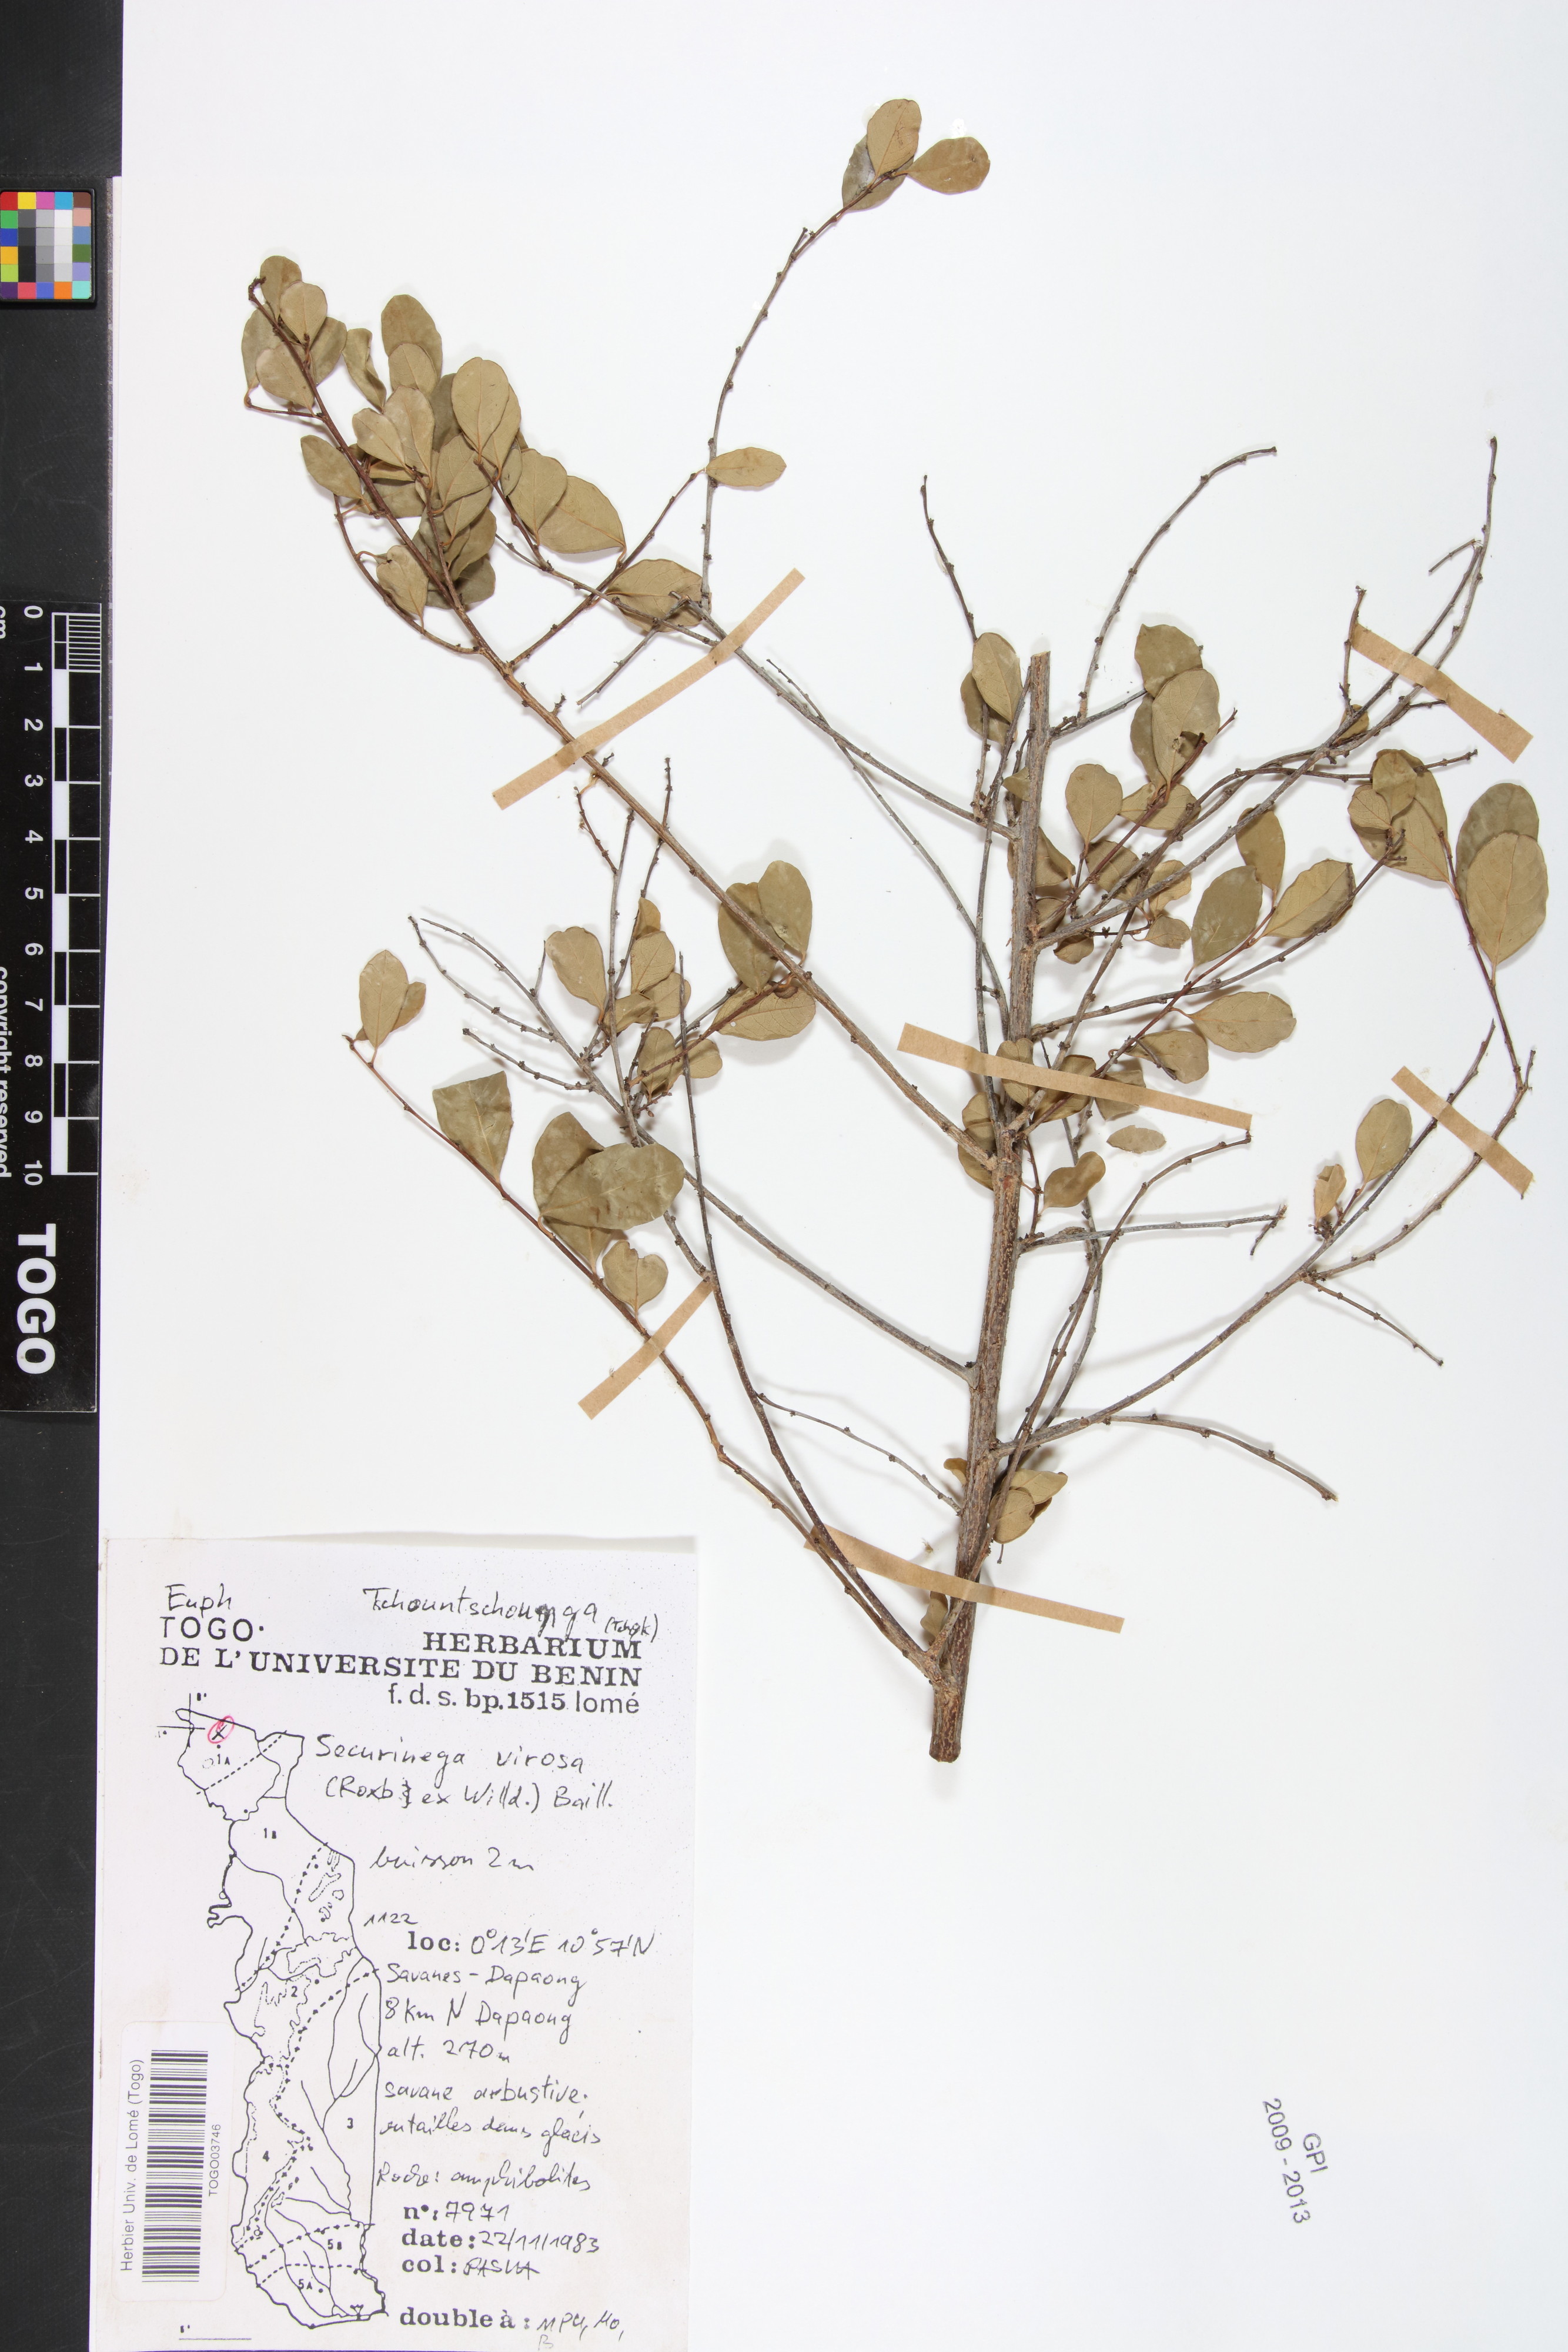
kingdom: Plantae
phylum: Tracheophyta
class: Magnoliopsida
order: Malpighiales
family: Phyllanthaceae
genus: Flueggea
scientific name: Flueggea virosa
